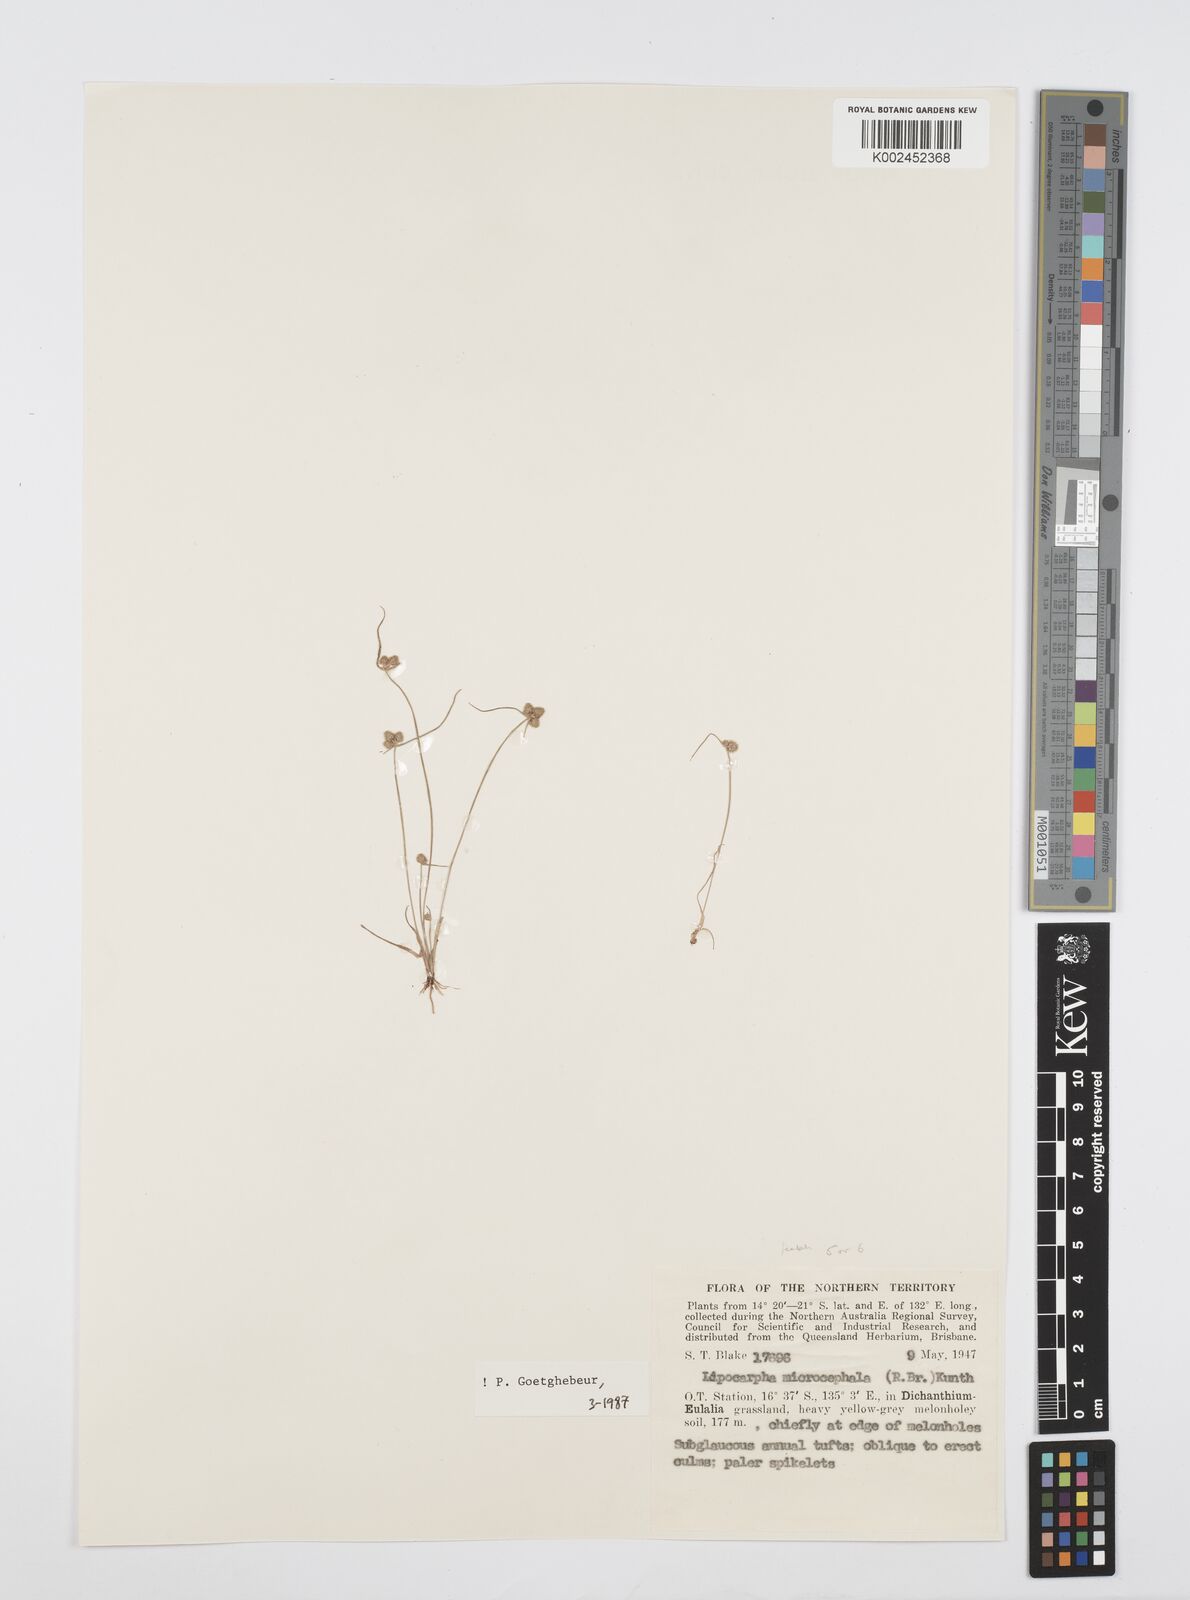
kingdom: Plantae
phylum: Tracheophyta
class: Liliopsida
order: Poales
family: Cyperaceae
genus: Cyperus
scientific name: Cyperus microcephalus
